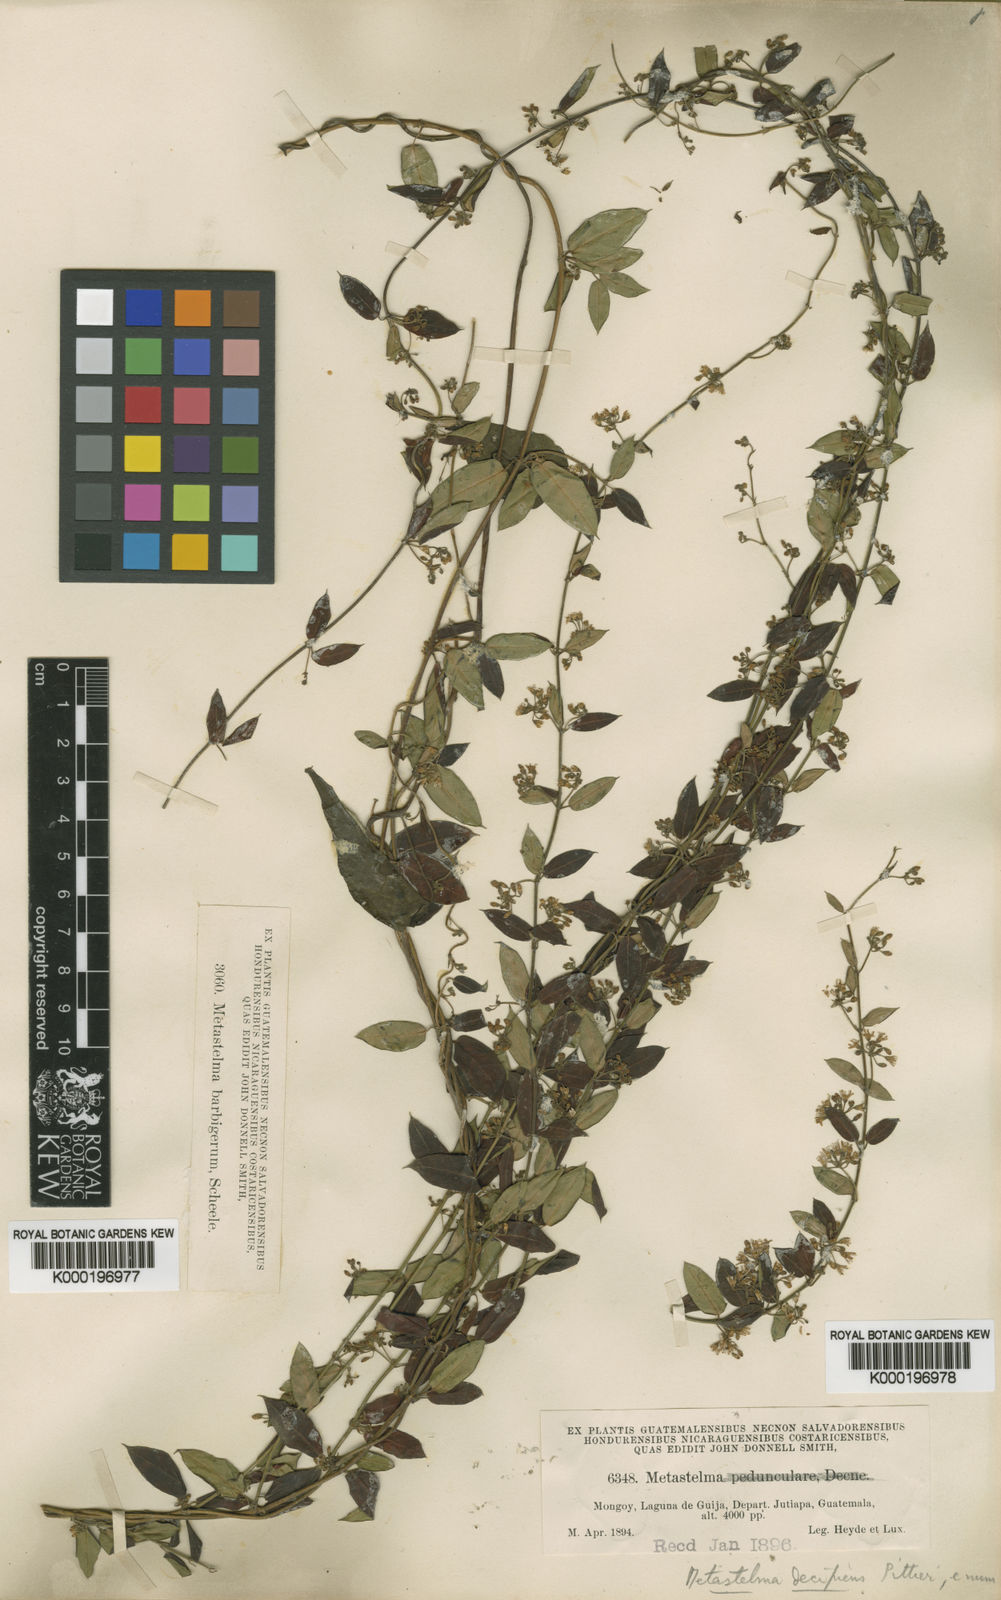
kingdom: Plantae
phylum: Tracheophyta
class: Magnoliopsida
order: Gentianales
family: Apocynaceae
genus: Metastelma
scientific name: Metastelma schlechtendalii
